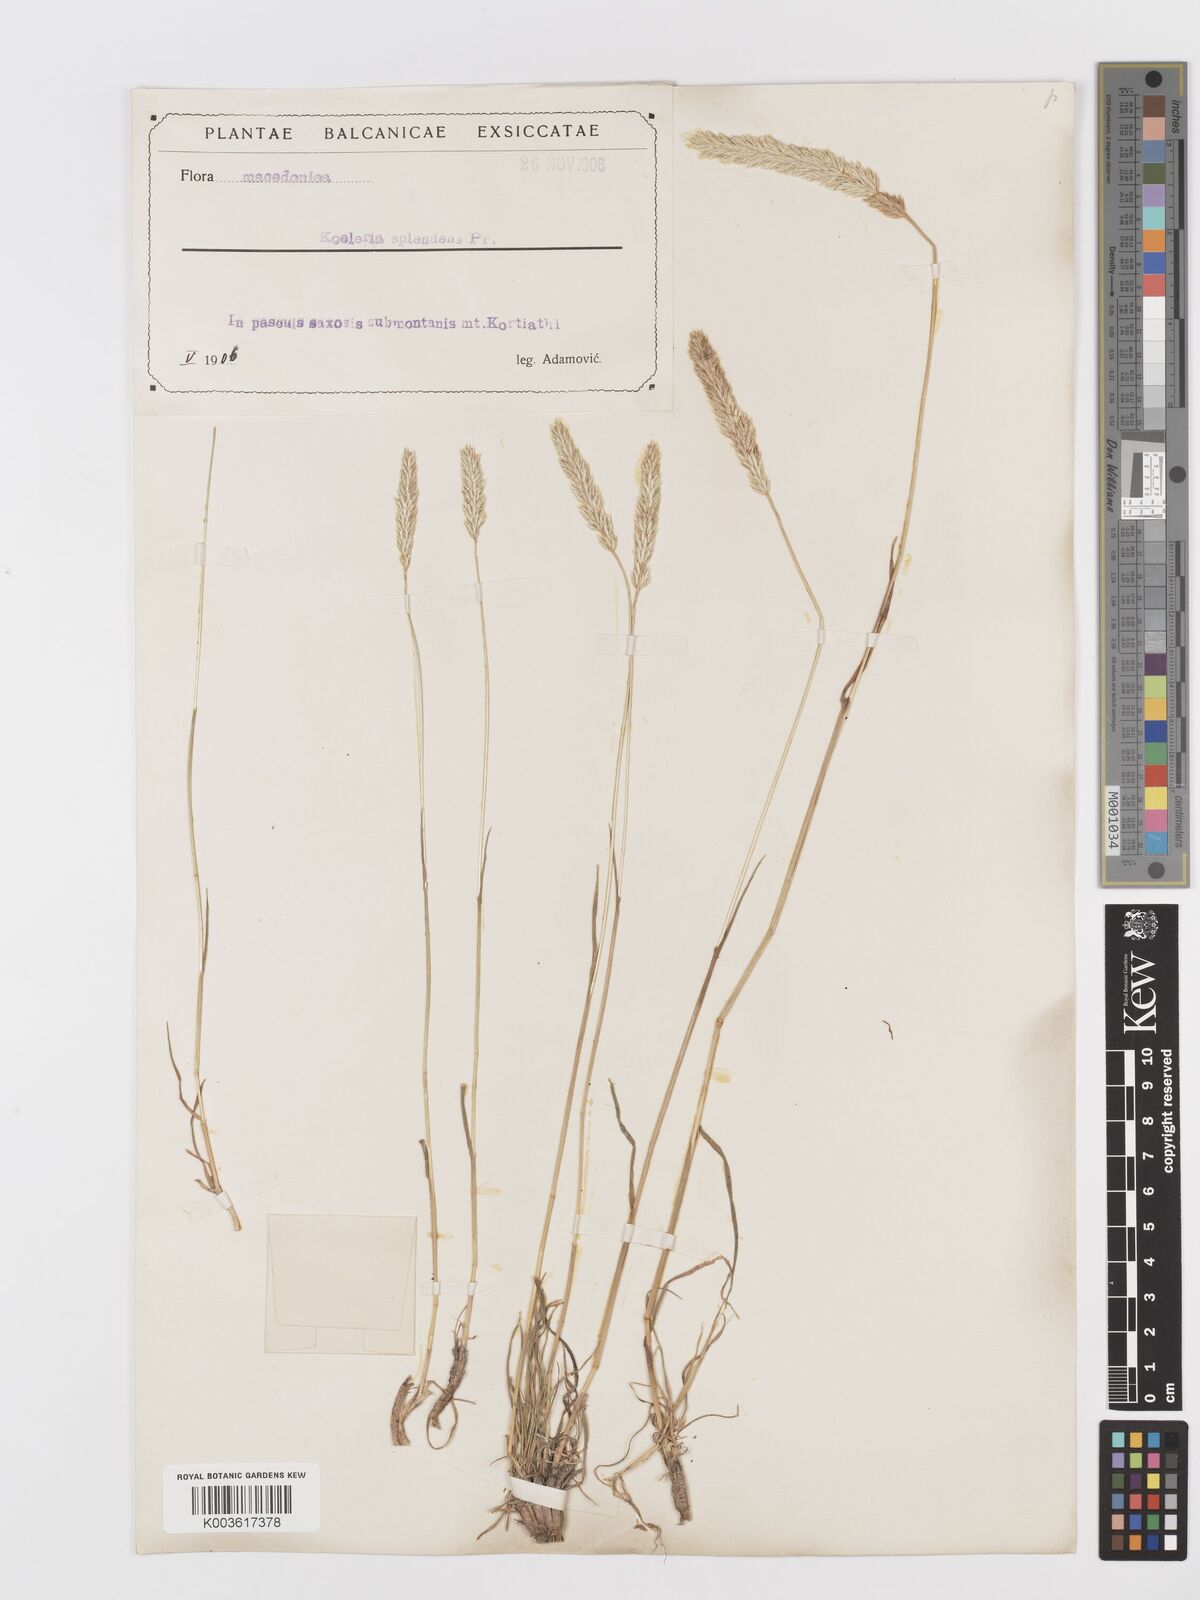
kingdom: Plantae
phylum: Tracheophyta
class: Liliopsida
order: Poales
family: Poaceae
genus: Koeleria
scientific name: Koeleria splendens
